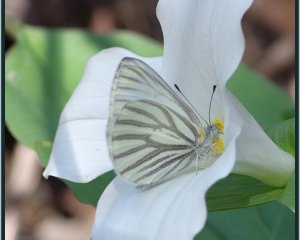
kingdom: Animalia
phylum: Arthropoda
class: Insecta
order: Lepidoptera
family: Pieridae
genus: Pieris
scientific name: Pieris oleracea
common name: Mustard White
